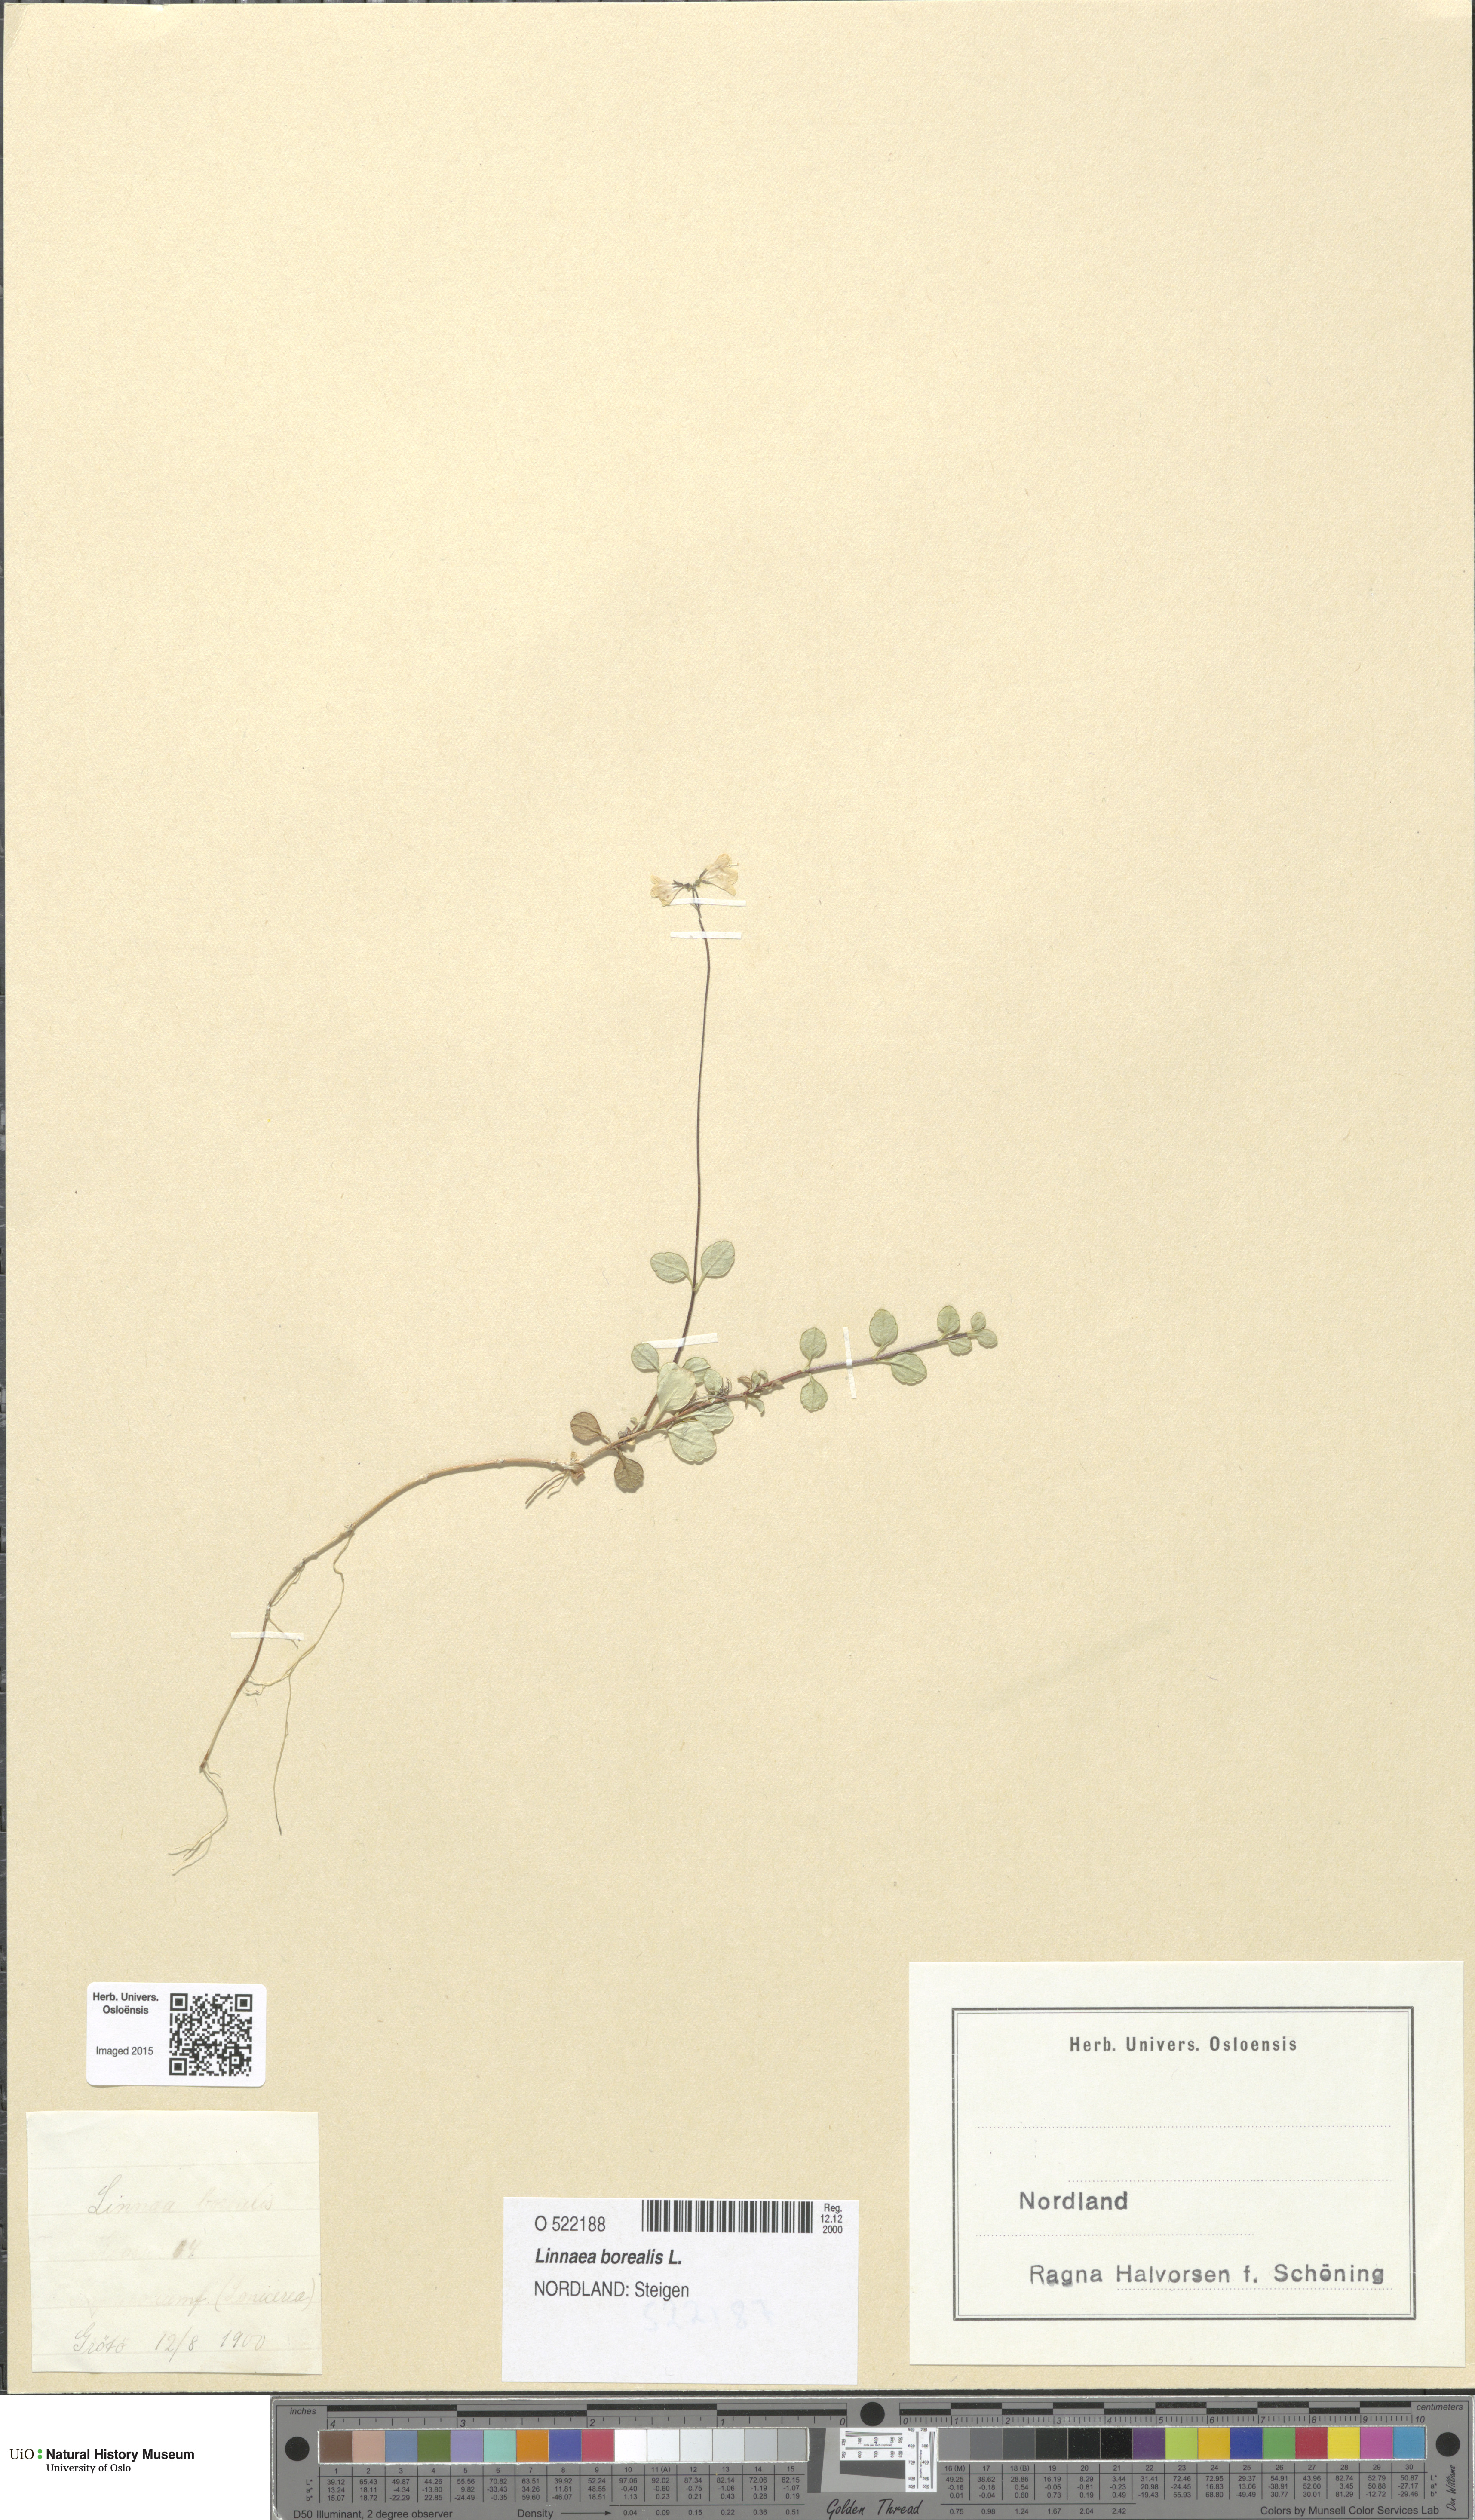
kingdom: Plantae
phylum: Tracheophyta
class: Magnoliopsida
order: Dipsacales
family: Caprifoliaceae
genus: Linnaea
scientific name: Linnaea borealis
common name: Twinflower
